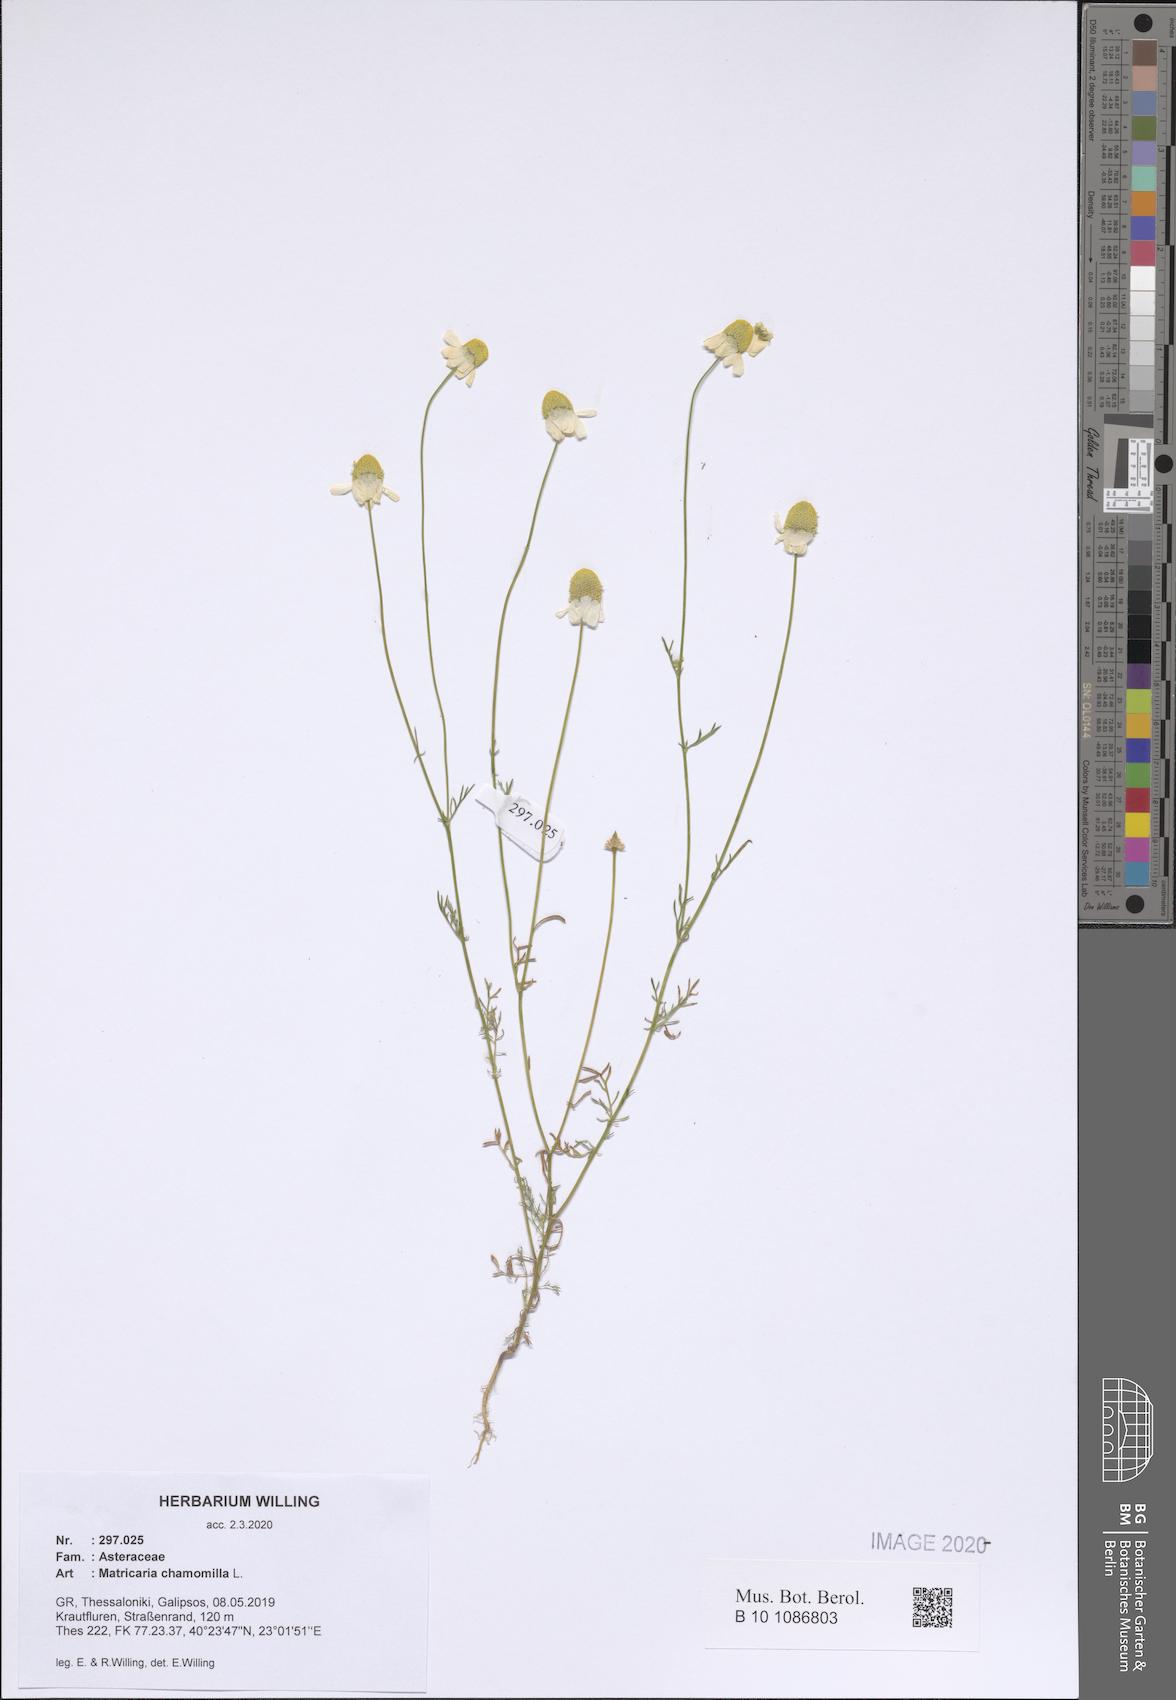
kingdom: Plantae
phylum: Tracheophyta
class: Magnoliopsida
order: Asterales
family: Asteraceae
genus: Matricaria
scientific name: Matricaria chamomilla
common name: Scented mayweed
